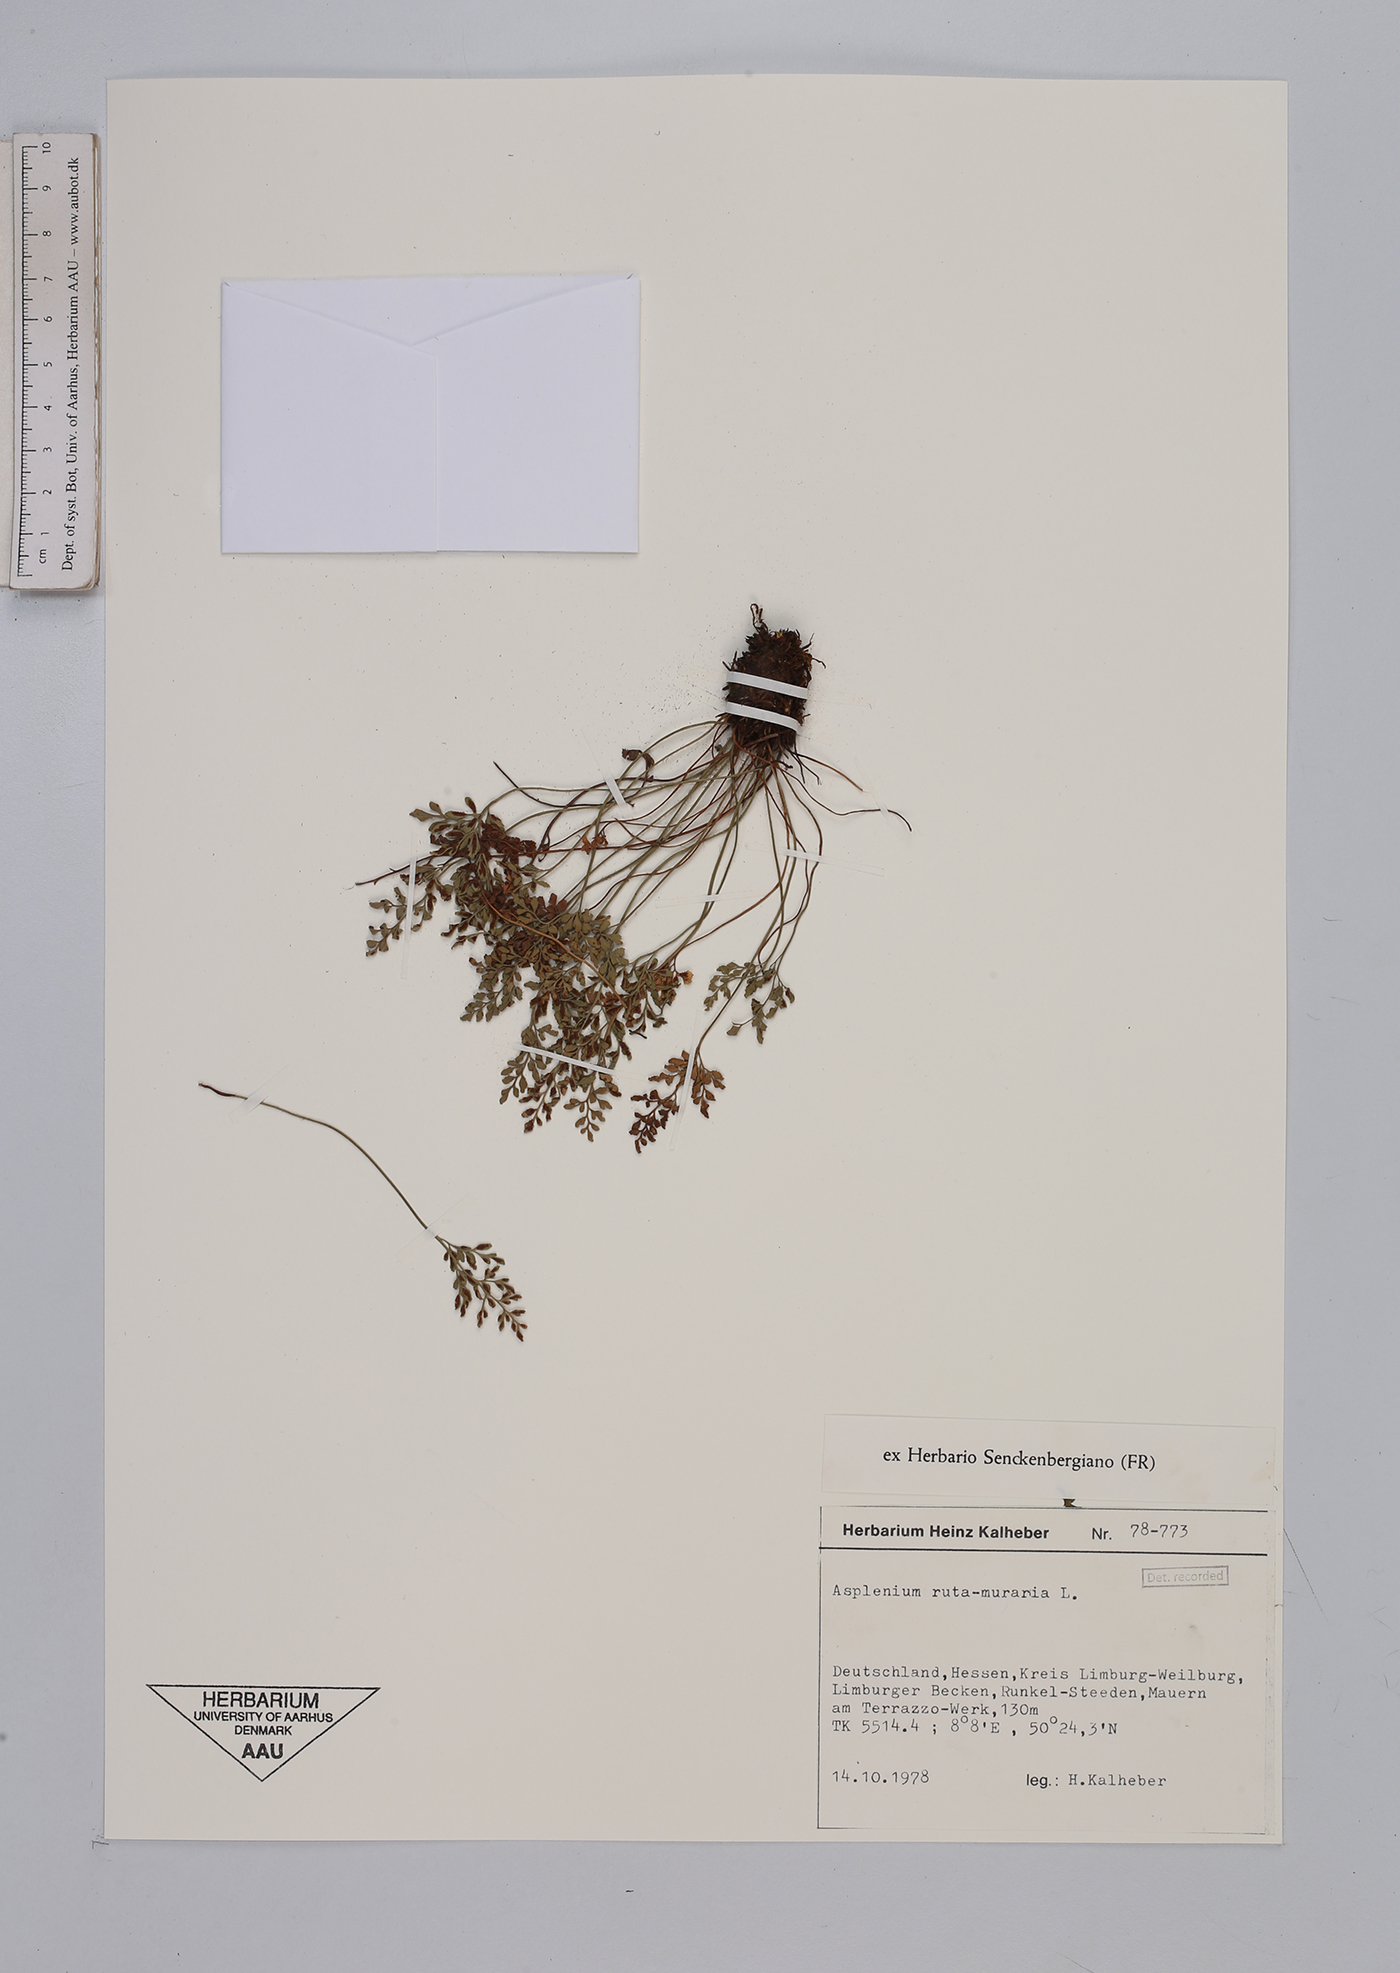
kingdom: Plantae
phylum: Tracheophyta
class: Polypodiopsida
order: Polypodiales
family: Aspleniaceae
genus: Asplenium
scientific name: Asplenium ruta-muraria
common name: Wall-rue
